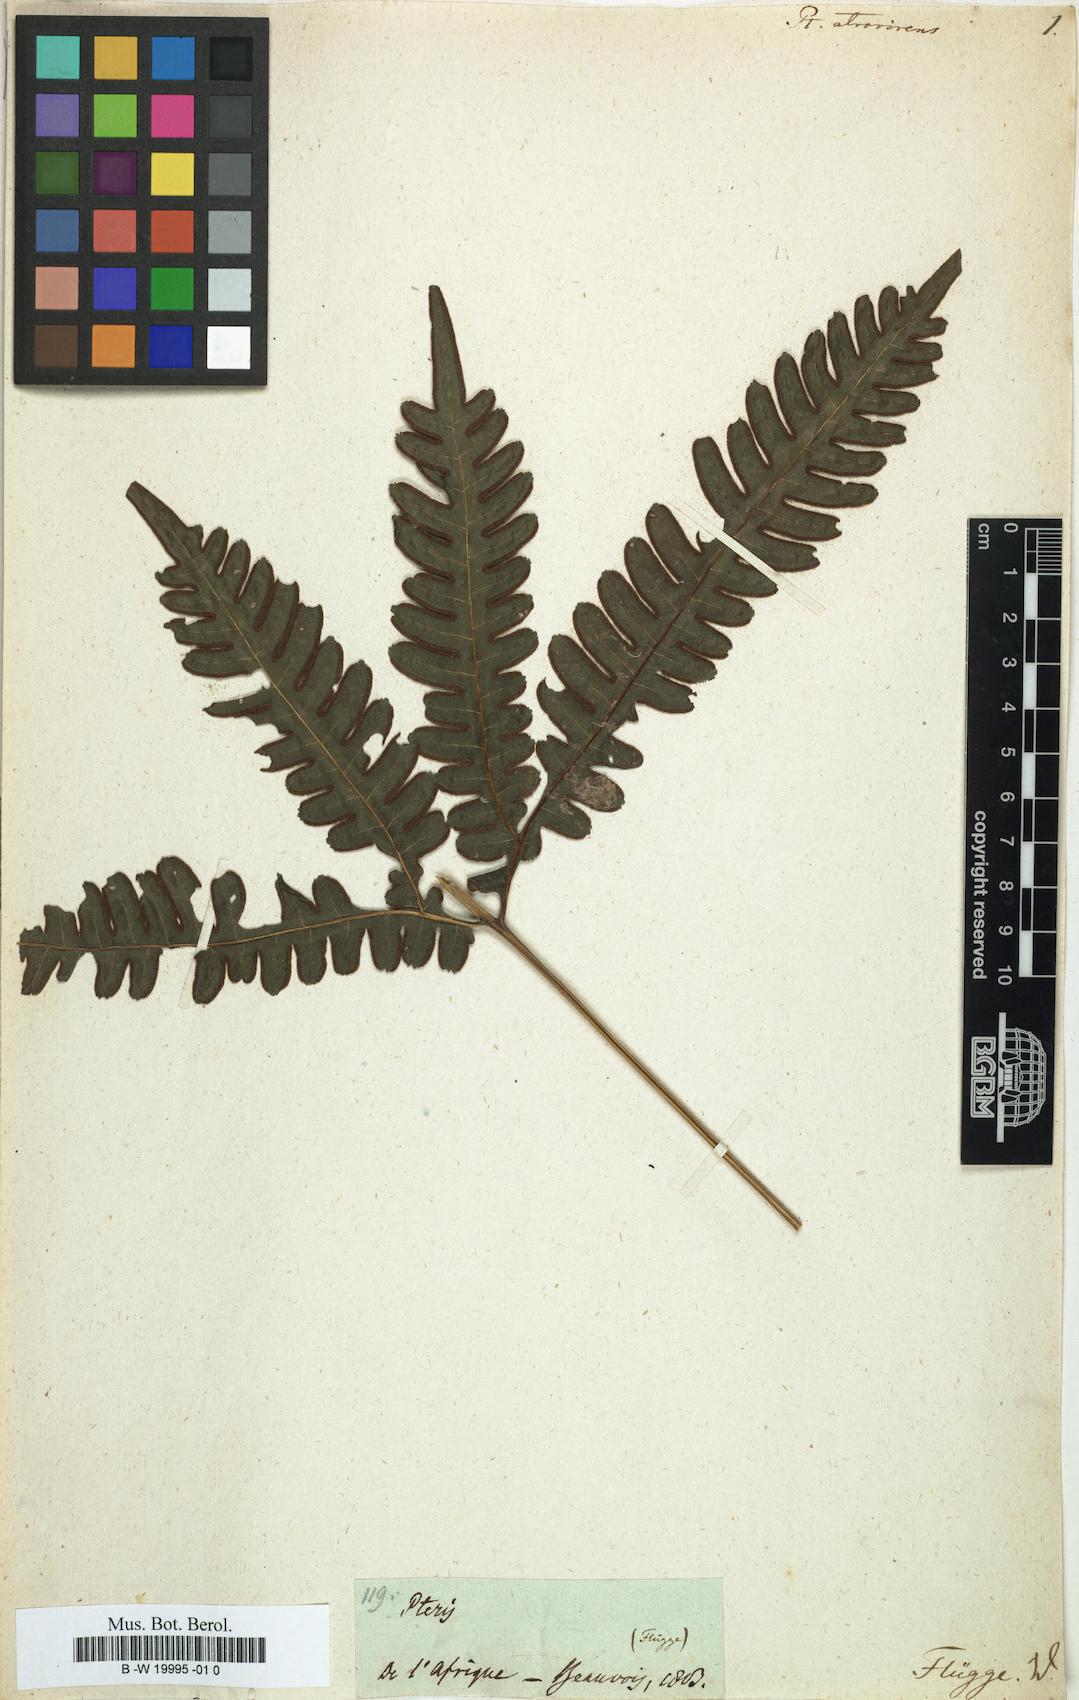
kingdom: Plantae
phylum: Tracheophyta
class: Polypodiopsida
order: Polypodiales
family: Pteridaceae
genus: Pteris
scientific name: Pteris atrovirens
